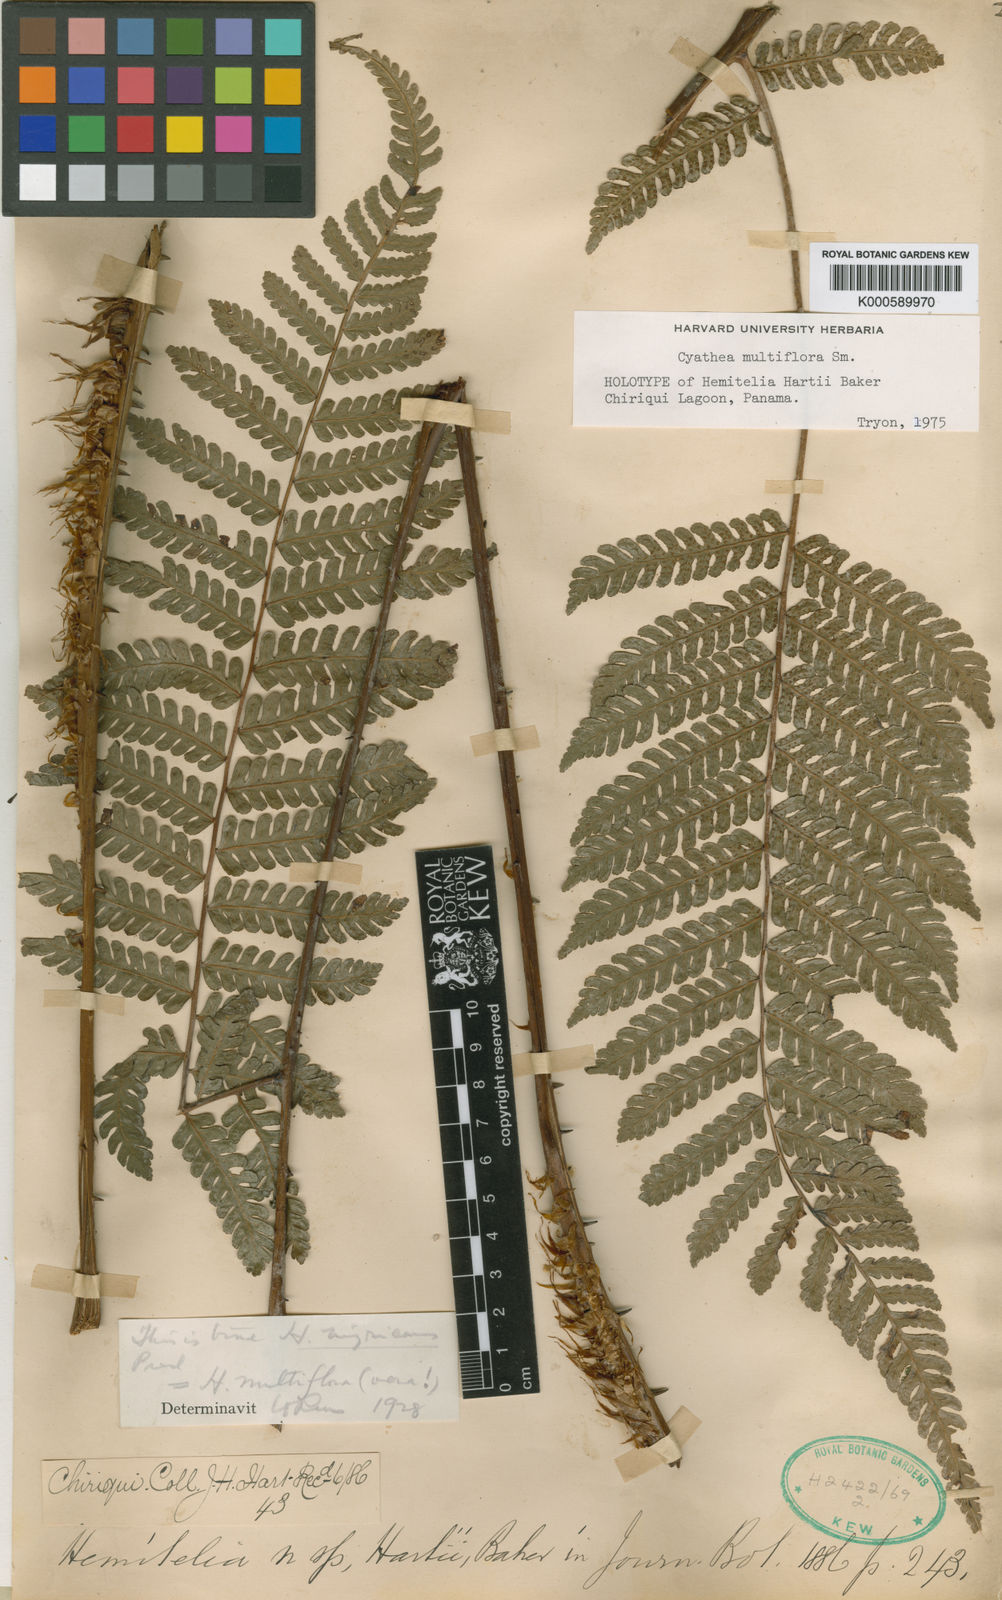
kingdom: Plantae
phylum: Tracheophyta
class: Polypodiopsida
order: Cyatheales
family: Cyatheaceae
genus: Cyathea
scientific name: Cyathea multiflora
